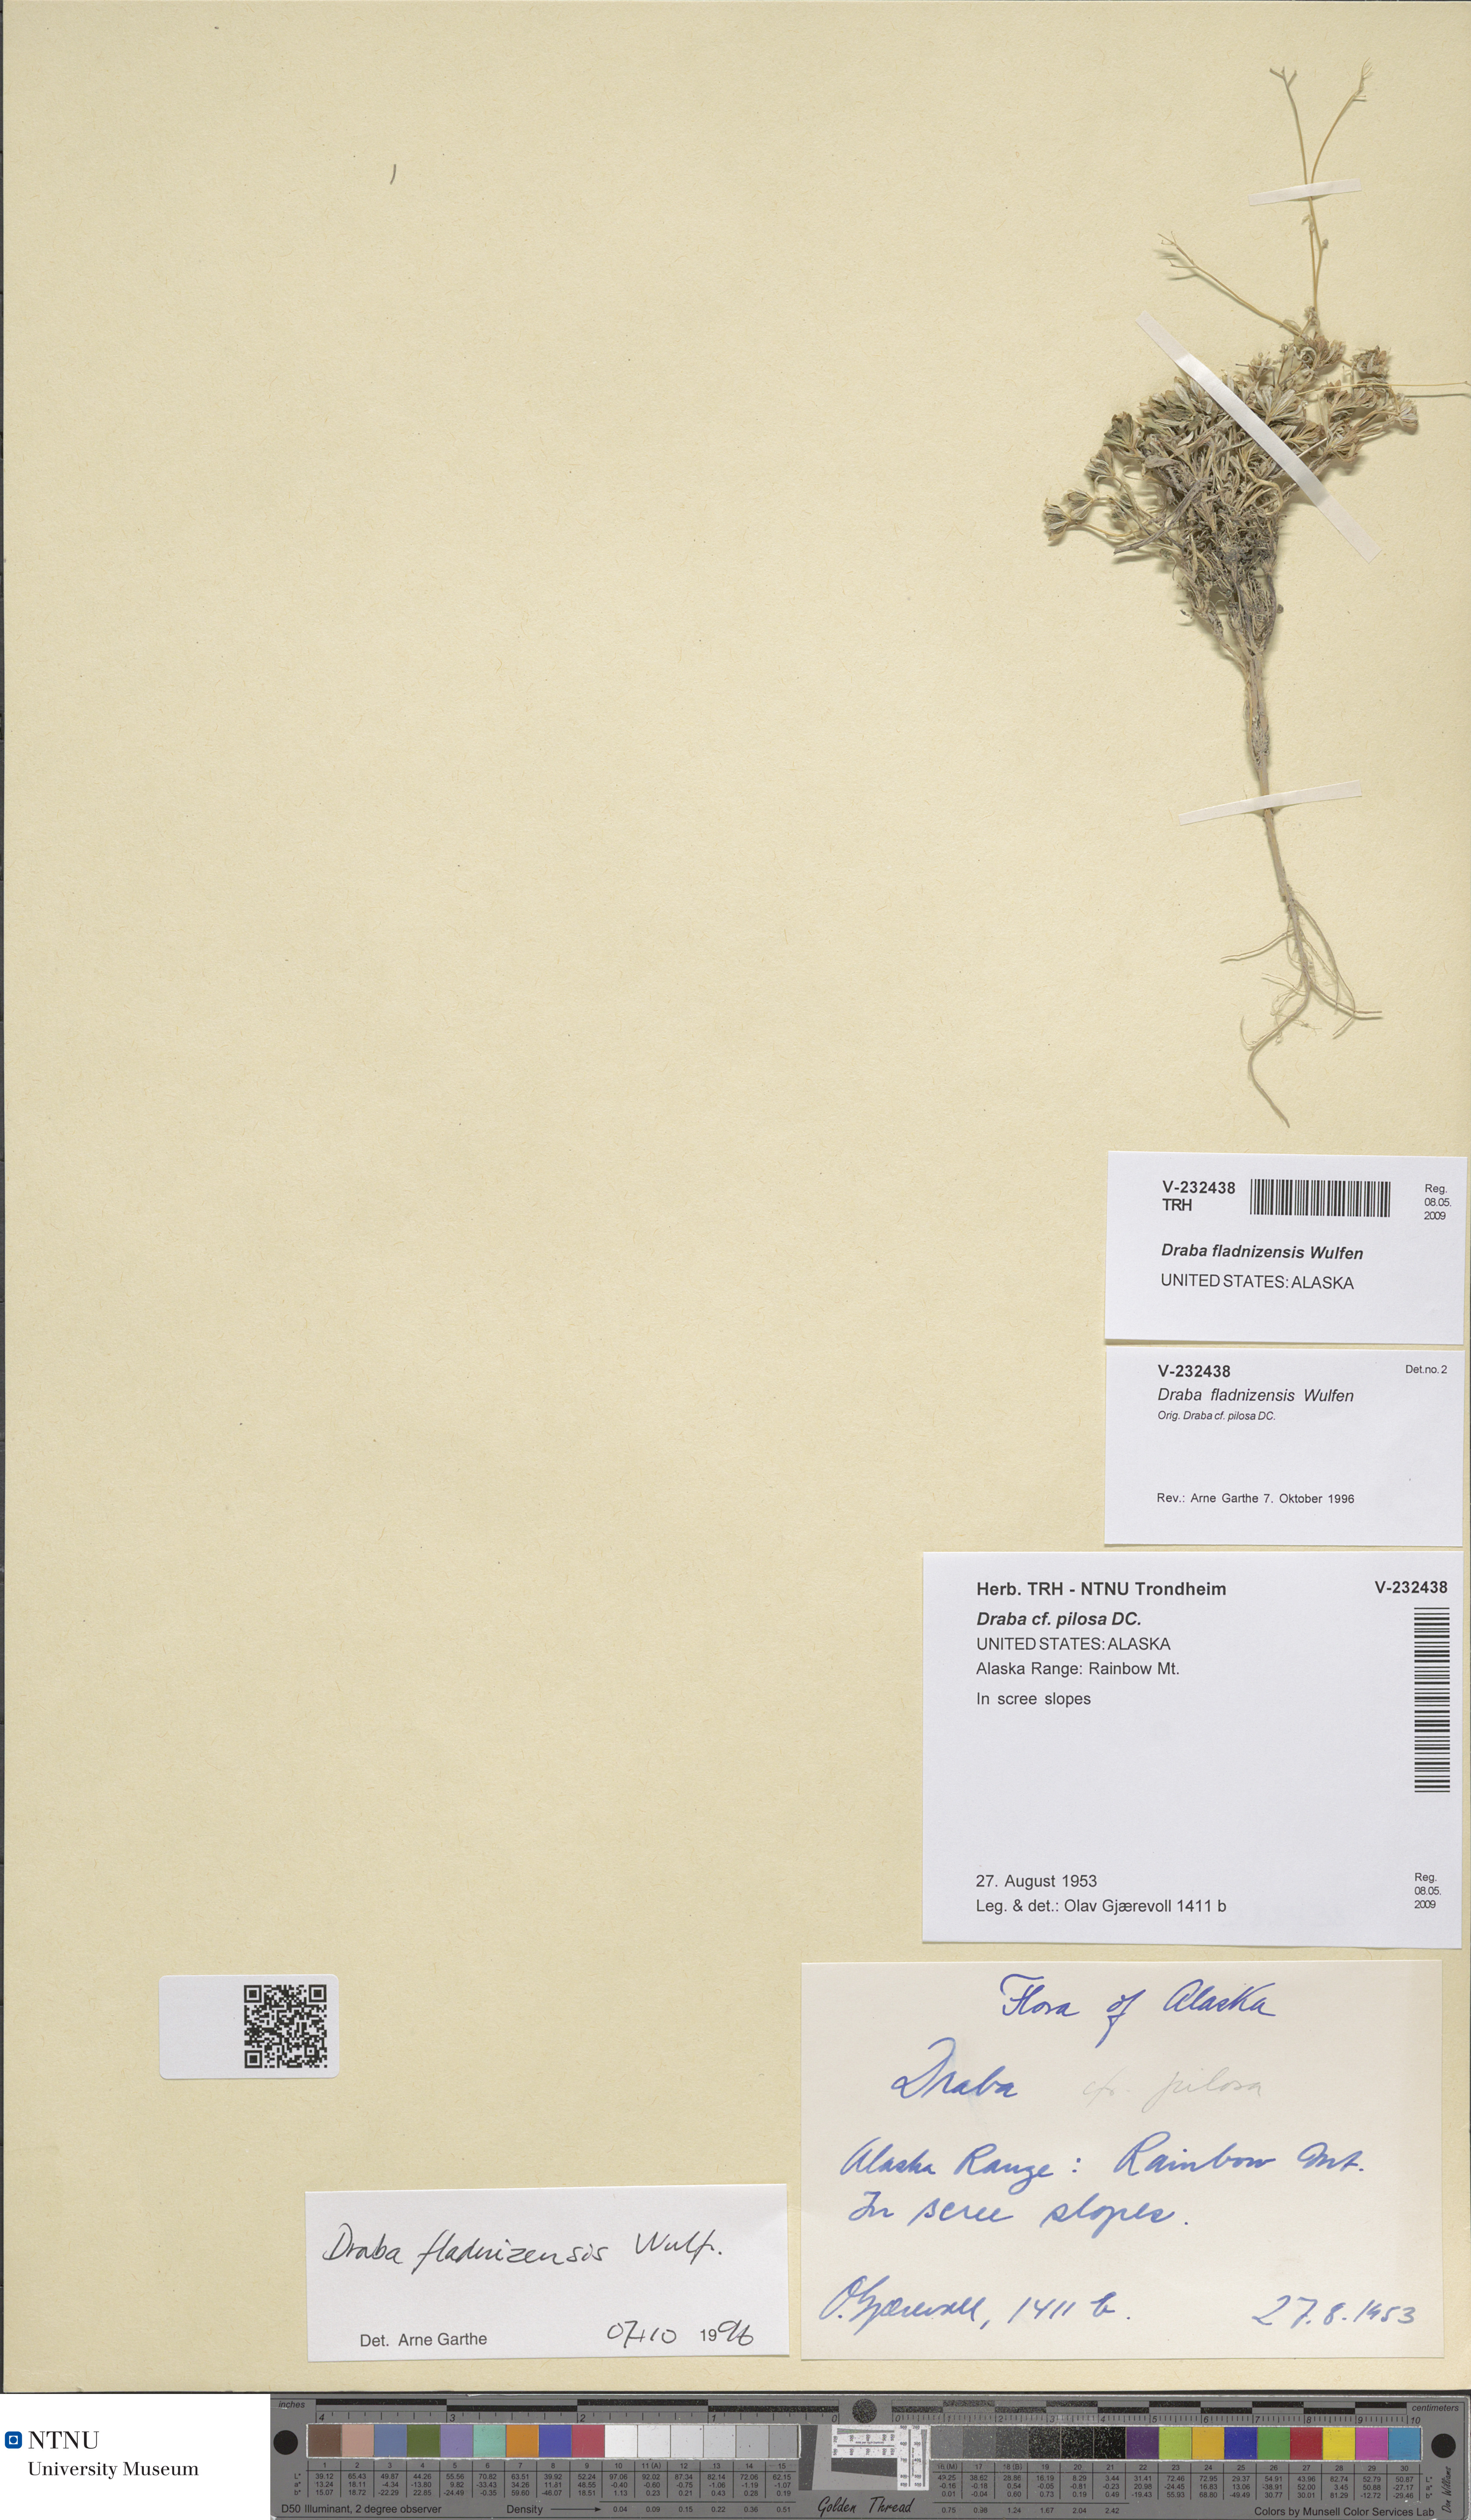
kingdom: Plantae
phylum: Tracheophyta
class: Magnoliopsida
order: Brassicales
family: Brassicaceae
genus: Draba
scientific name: Draba fladnizensis
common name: Austrian draba
